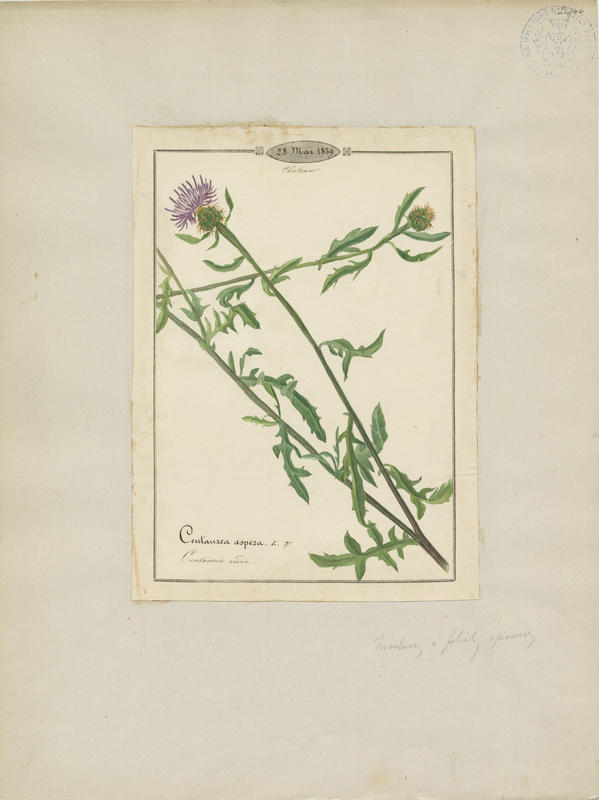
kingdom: Plantae
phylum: Tracheophyta
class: Magnoliopsida
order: Asterales
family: Asteraceae
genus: Centaurea
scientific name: Centaurea aspera
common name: Rough star-thistle
